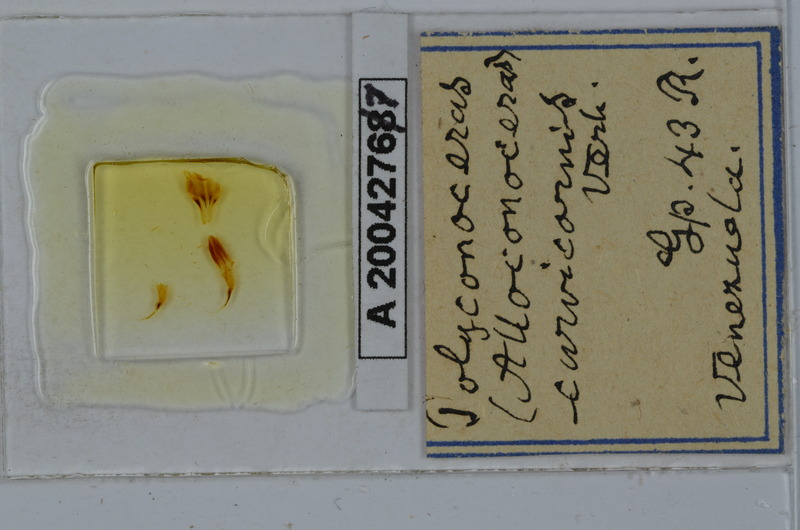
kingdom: Animalia
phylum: Arthropoda
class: Diplopoda
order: Spirobolida
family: Rhinocricidae
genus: Salpidobolus
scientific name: Salpidobolus
